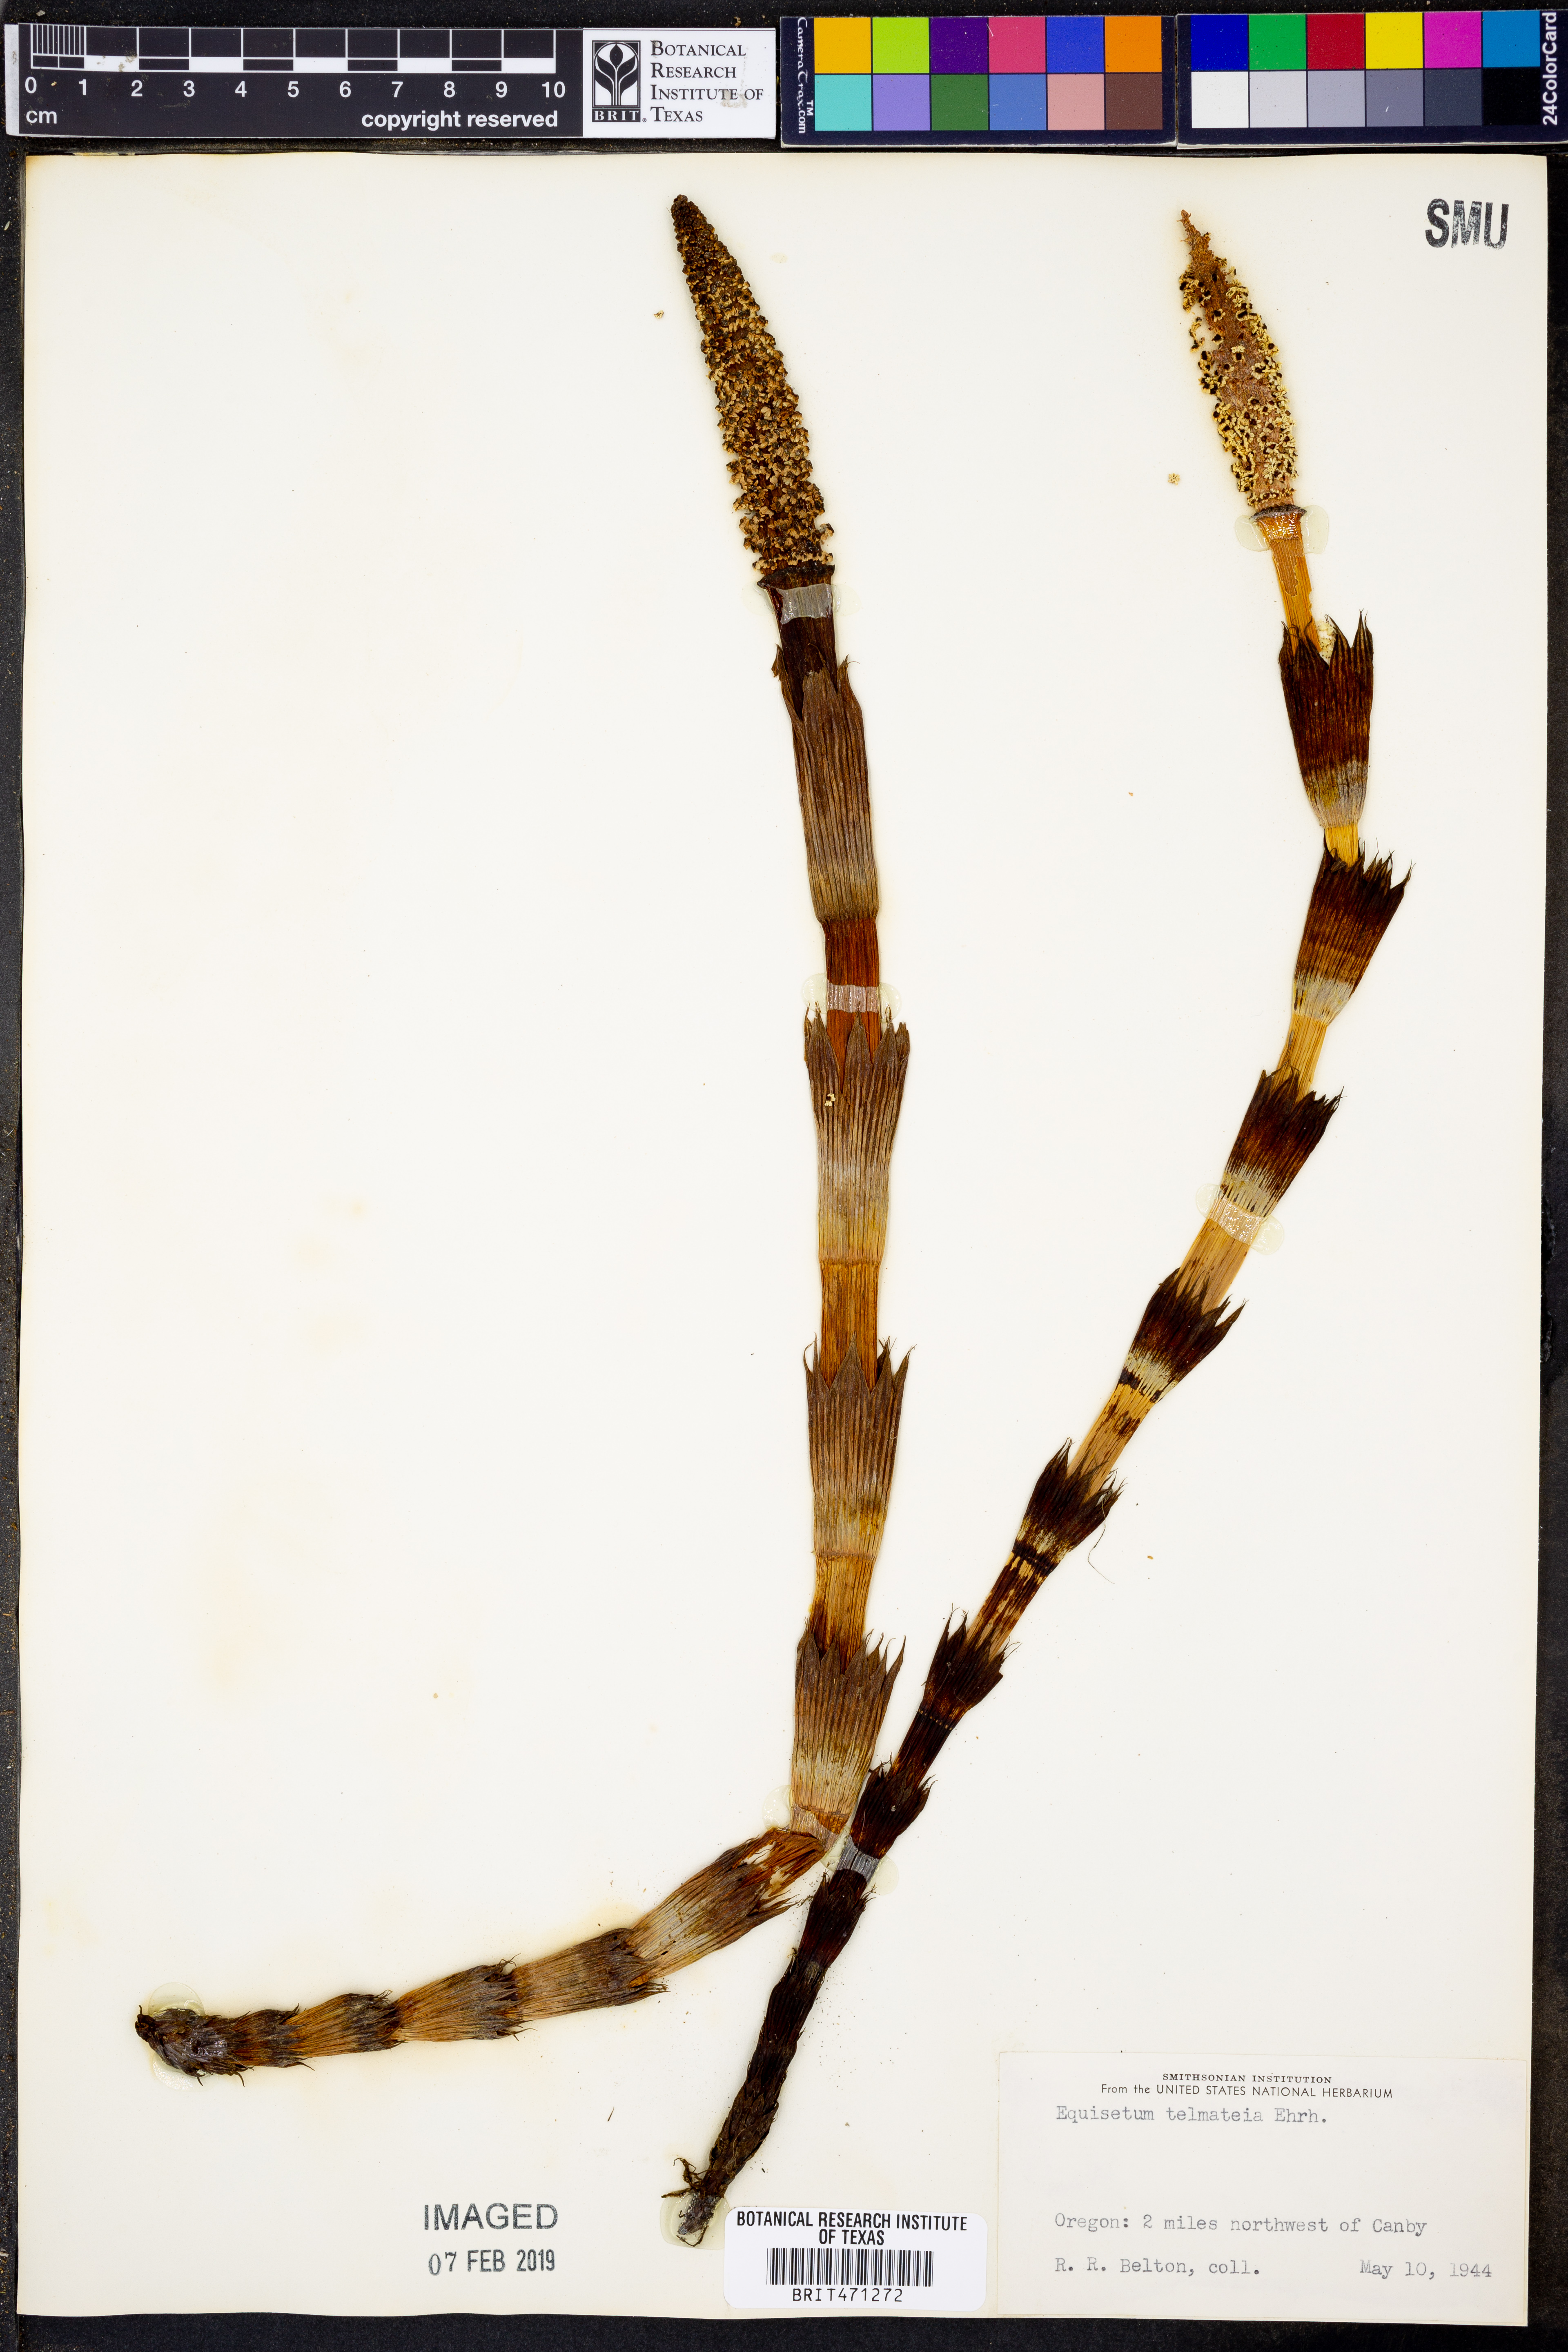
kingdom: Plantae
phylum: Tracheophyta
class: Polypodiopsida
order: Equisetales
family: Equisetaceae
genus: Equisetum
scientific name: Equisetum telmateia
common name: Great horsetail
